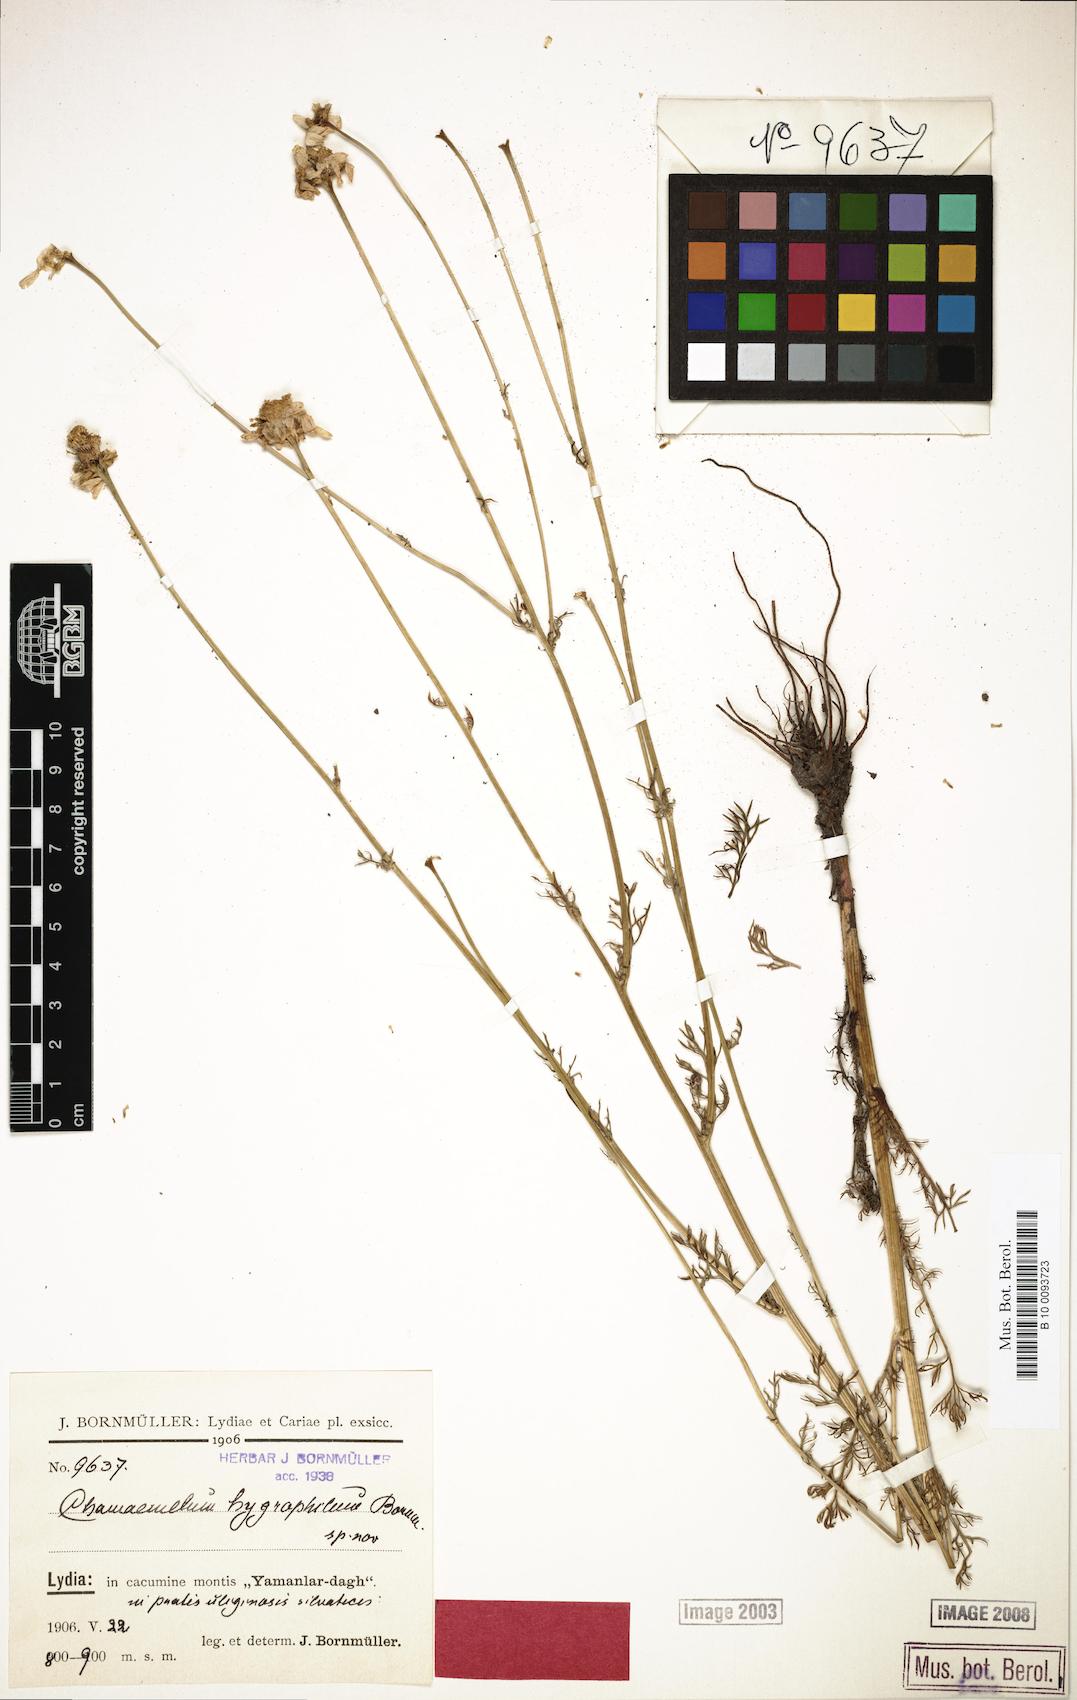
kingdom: Plantae
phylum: Tracheophyta
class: Magnoliopsida
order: Asterales
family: Asteraceae
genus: Tripleurospermum
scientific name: Tripleurospermum hygrophilum
